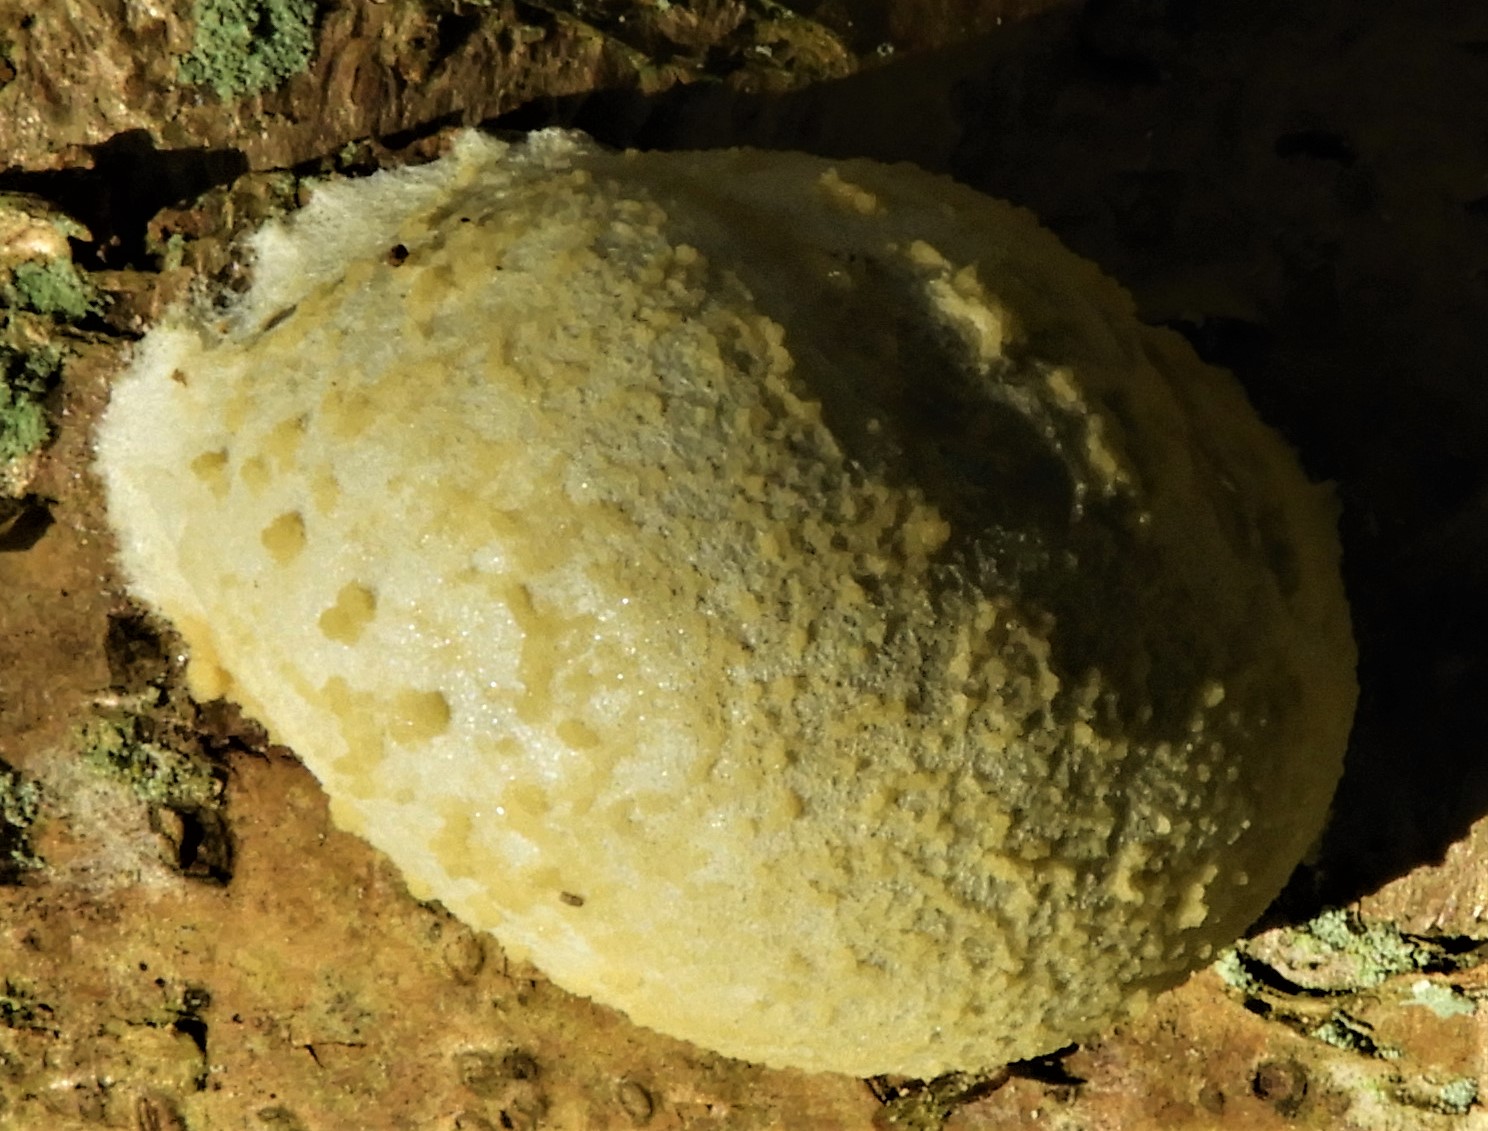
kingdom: Protozoa
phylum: Mycetozoa
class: Myxomycetes
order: Cribrariales
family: Tubiferaceae
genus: Reticularia
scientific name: Reticularia lycoperdon
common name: skinnende støvpude
